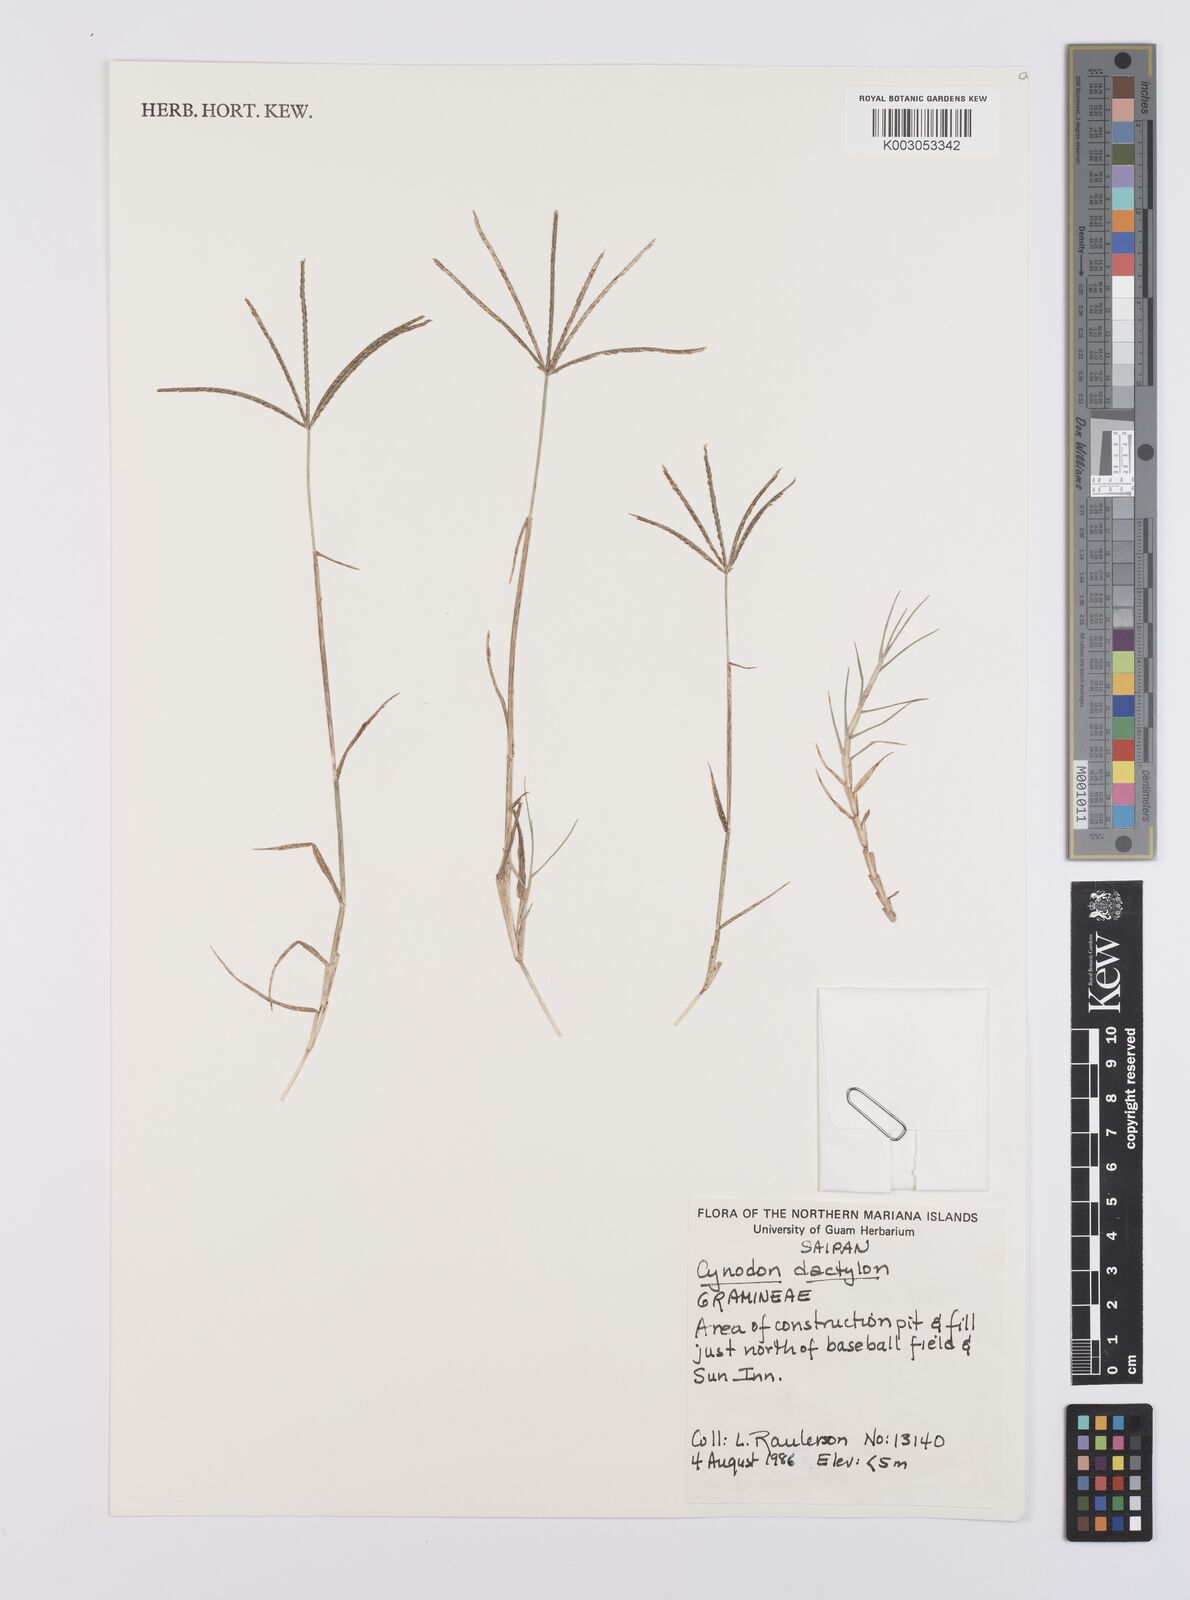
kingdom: Plantae
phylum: Tracheophyta
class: Liliopsida
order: Poales
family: Poaceae
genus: Cynodon
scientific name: Cynodon dactylon
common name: Bermuda grass
